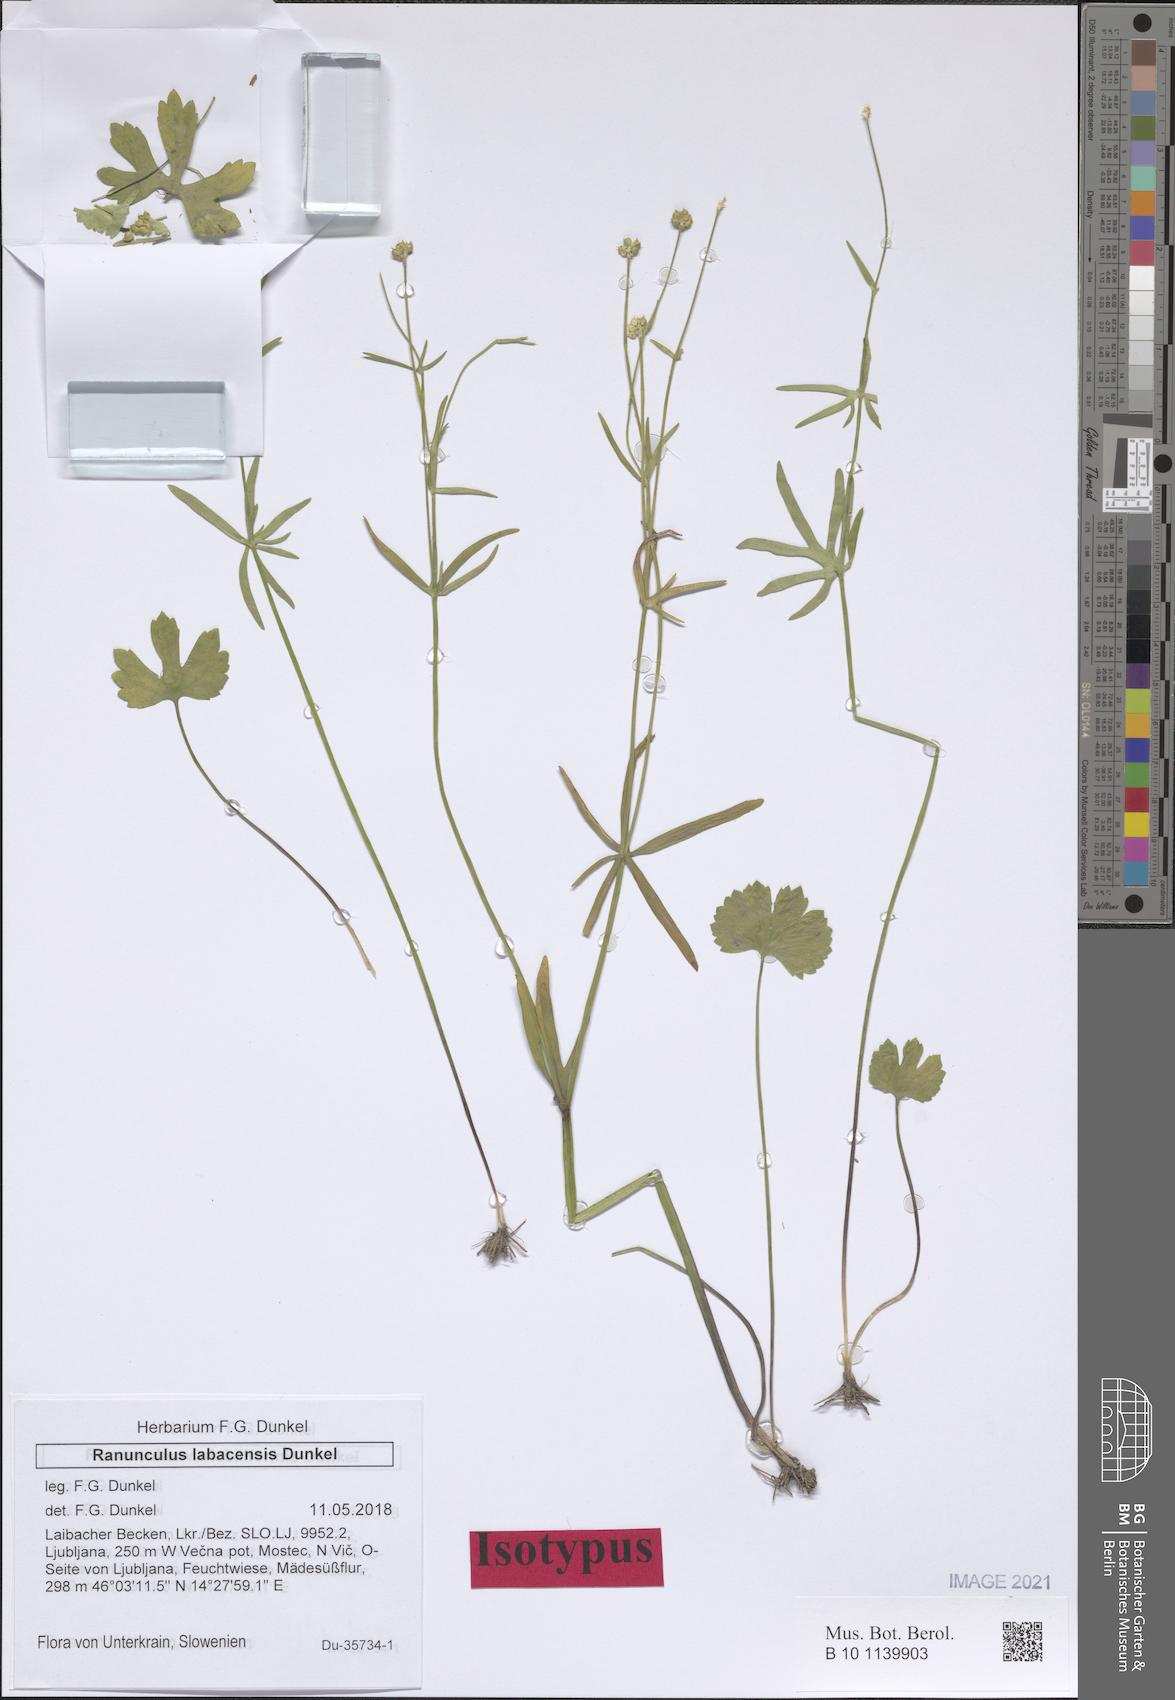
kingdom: Plantae
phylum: Tracheophyta
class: Magnoliopsida
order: Ranunculales
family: Ranunculaceae
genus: Ranunculus
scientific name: Ranunculus labacensis
